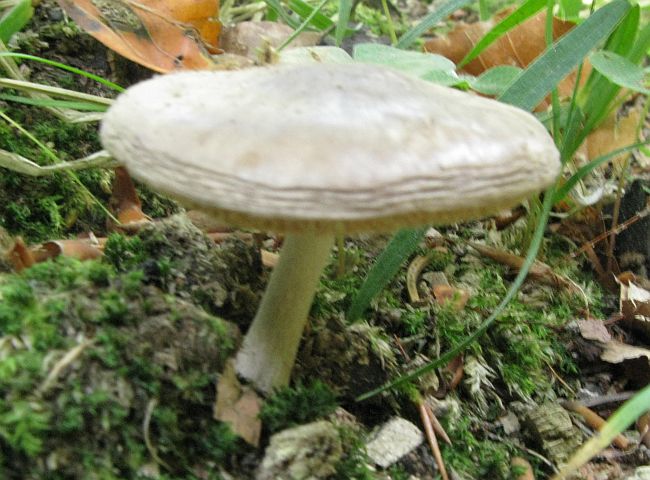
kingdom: Fungi
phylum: Basidiomycota
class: Agaricomycetes
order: Agaricales
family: Pluteaceae
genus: Pluteus
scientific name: Pluteus salicinus
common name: stiv skærmhat
